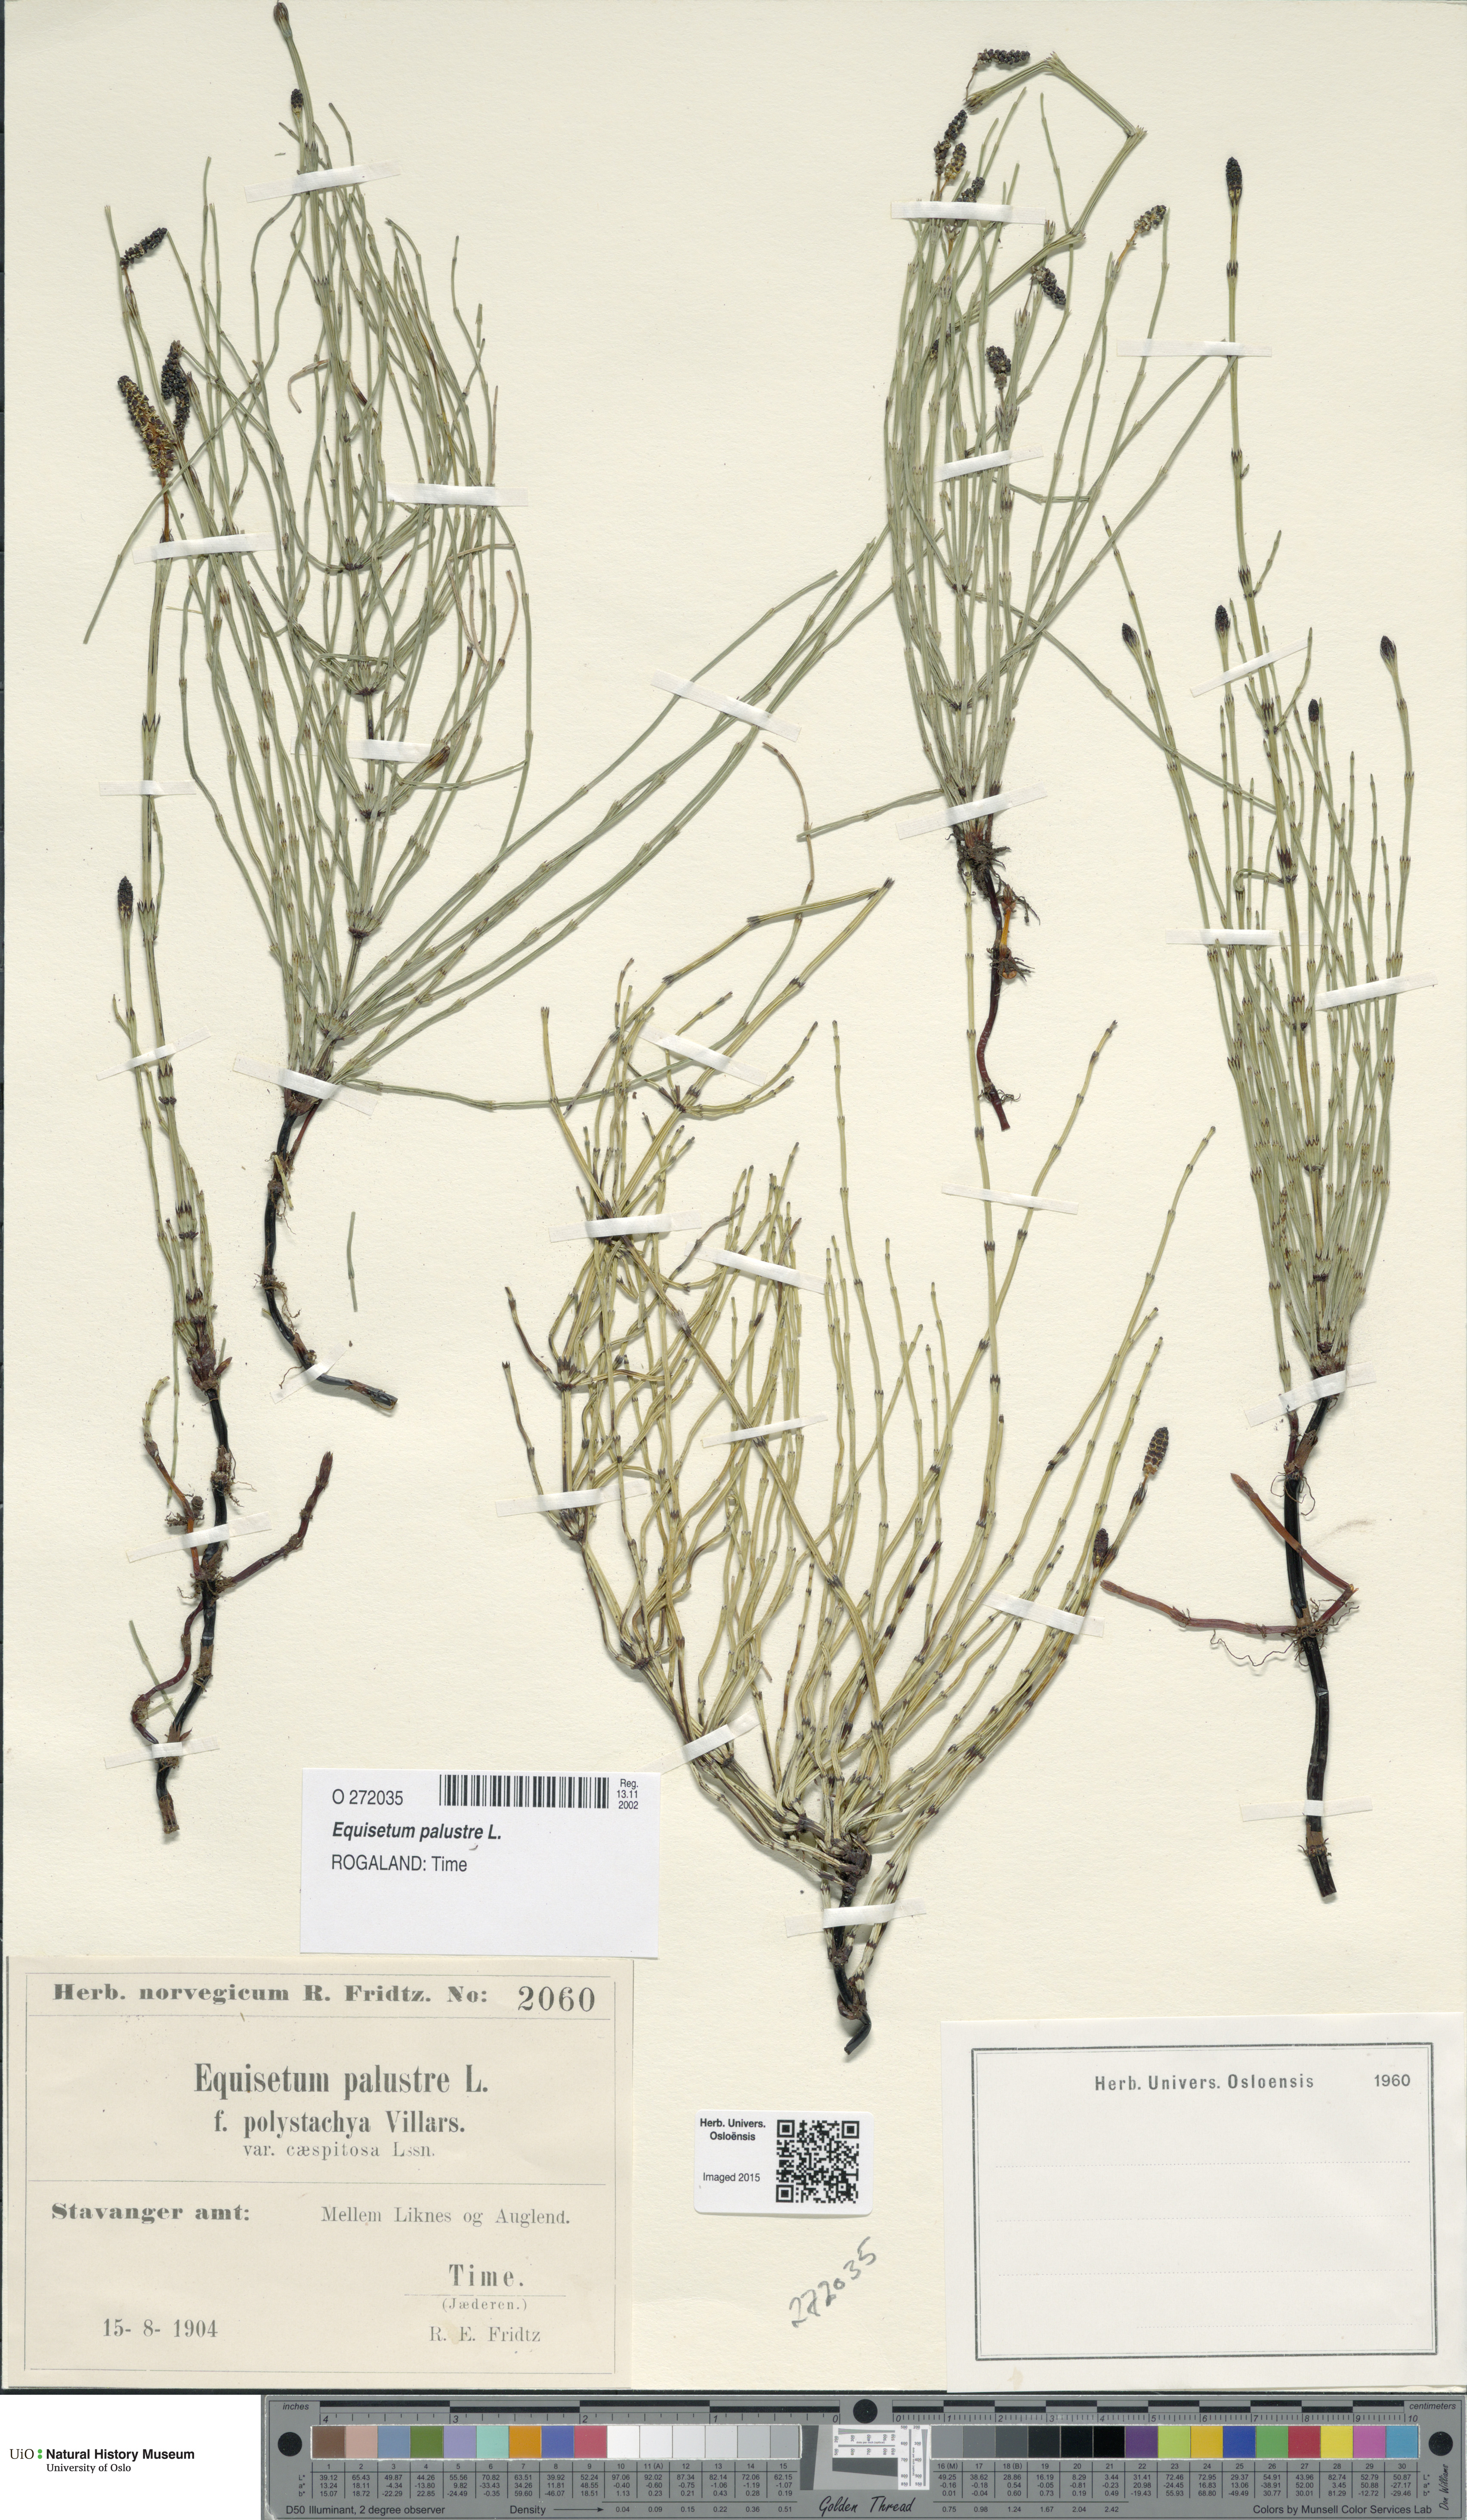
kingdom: Plantae
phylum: Tracheophyta
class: Polypodiopsida
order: Equisetales
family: Equisetaceae
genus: Equisetum
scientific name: Equisetum palustre
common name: Marsh horsetail
